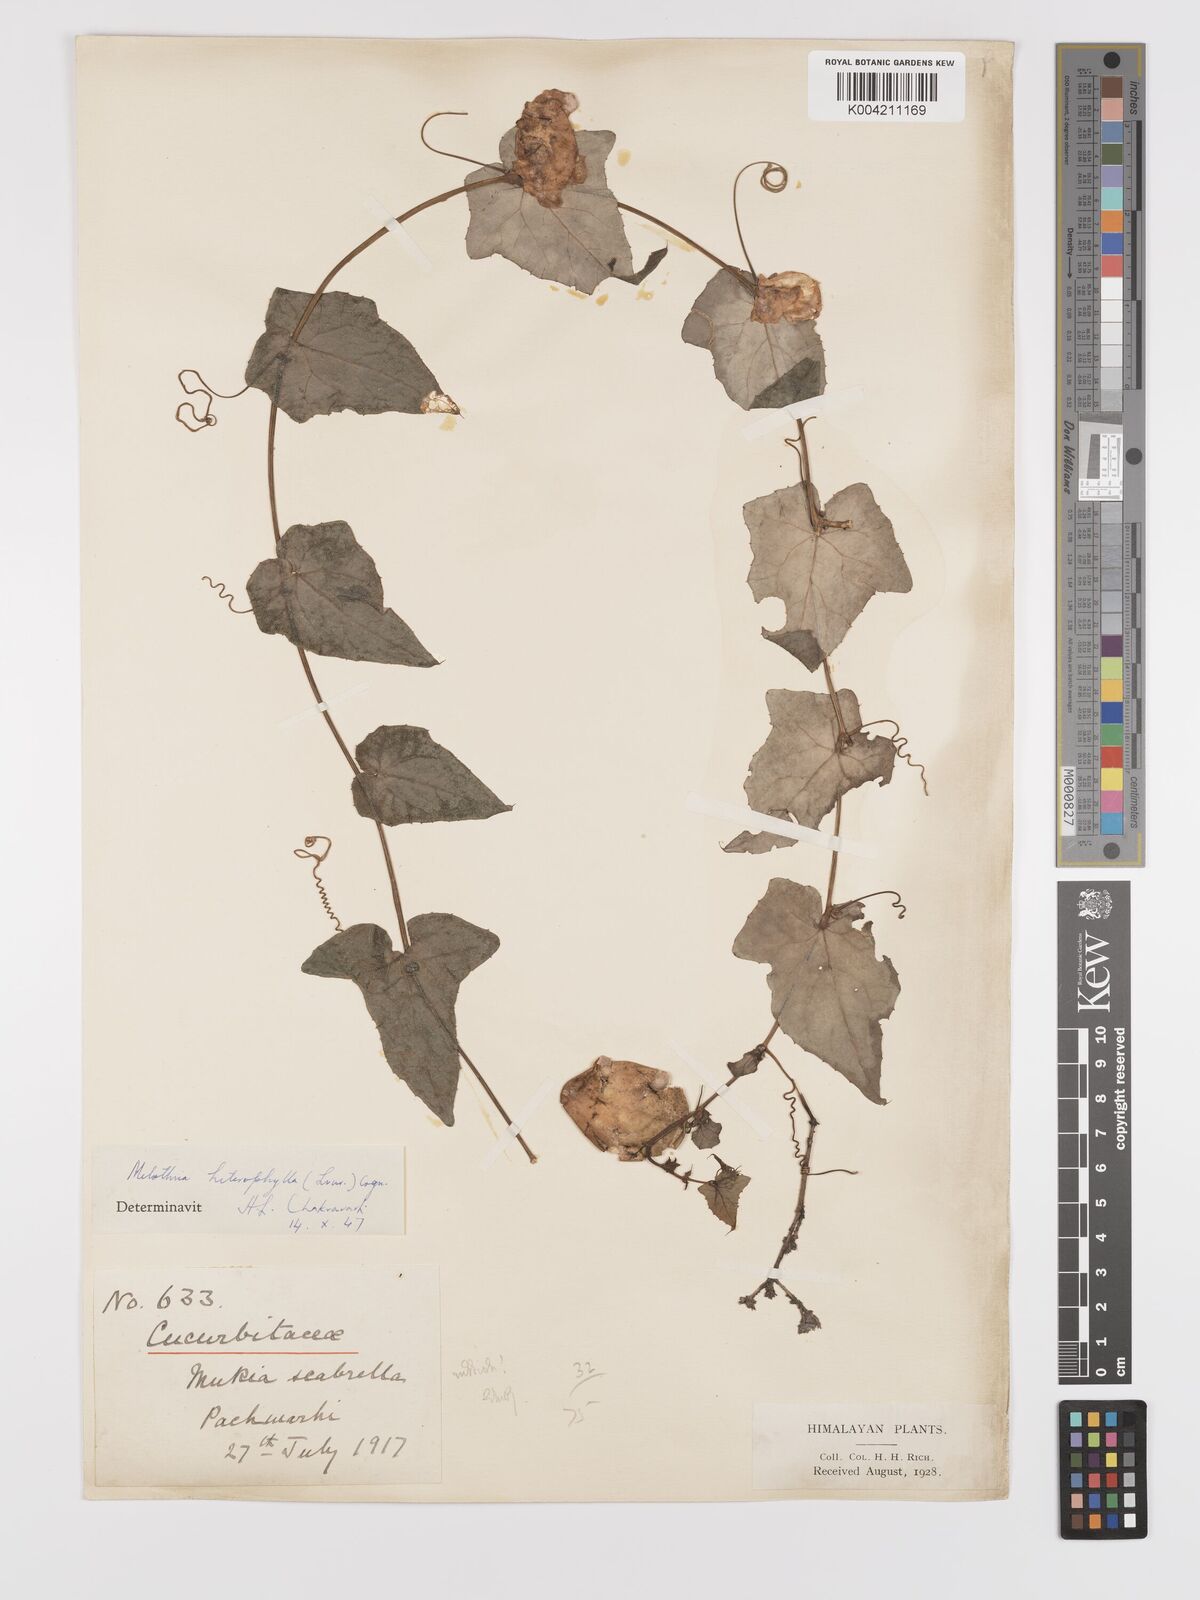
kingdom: Plantae
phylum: Tracheophyta
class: Magnoliopsida
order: Cucurbitales
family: Cucurbitaceae
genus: Solena
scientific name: Solena amplexicaulis
